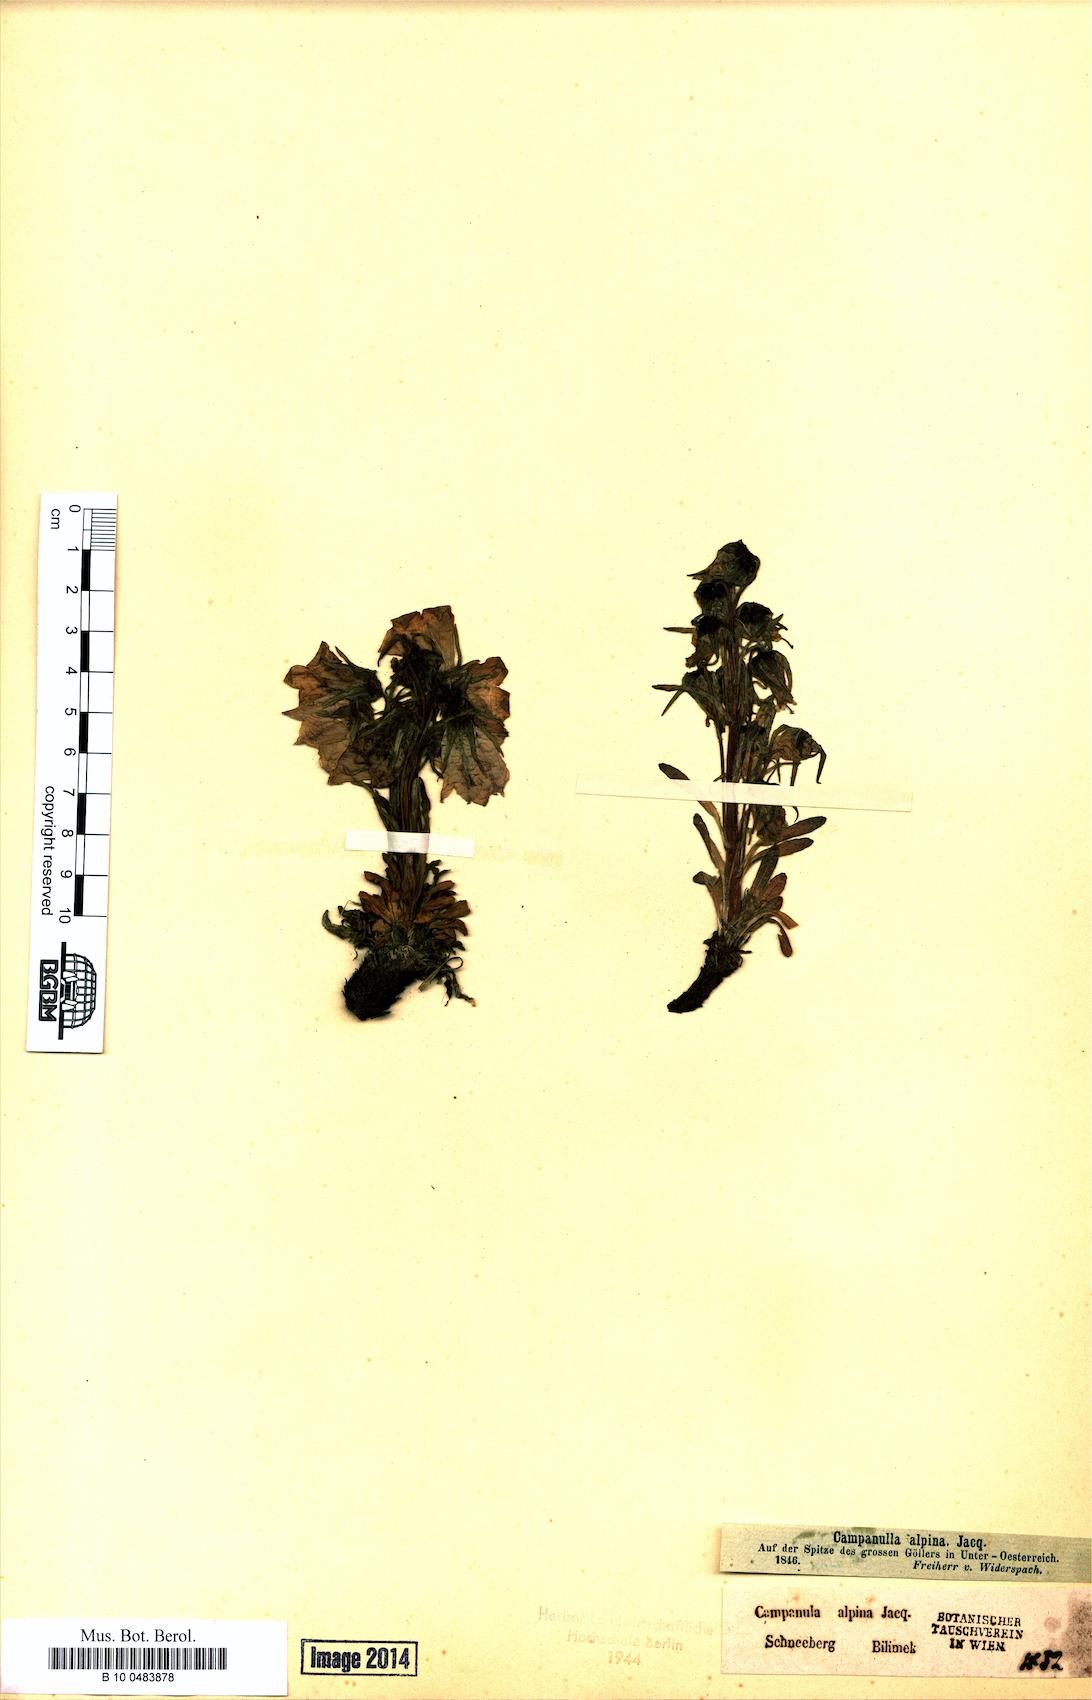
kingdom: Plantae
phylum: Tracheophyta
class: Magnoliopsida
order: Asterales
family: Campanulaceae
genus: Campanula
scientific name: Campanula alpina
